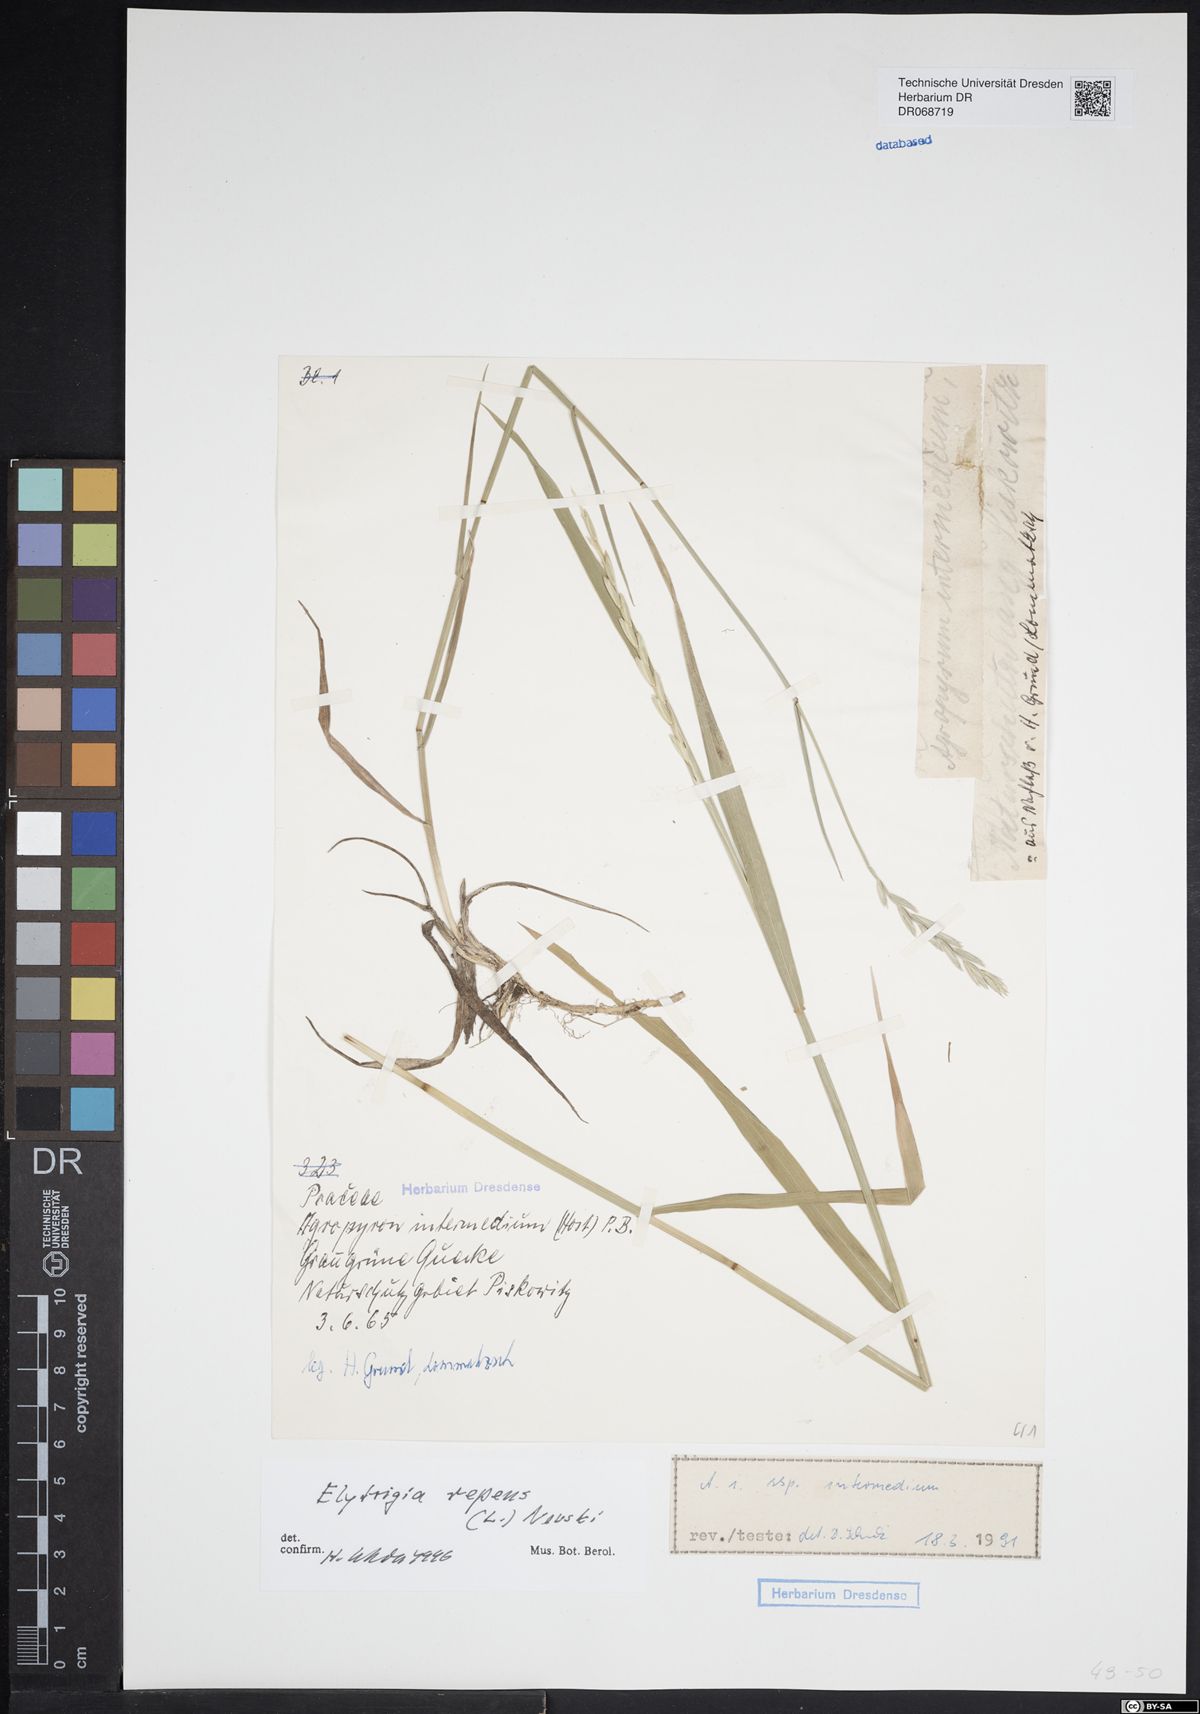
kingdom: Plantae
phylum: Tracheophyta
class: Liliopsida
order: Poales
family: Poaceae
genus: Elymus
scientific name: Elymus repens
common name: Quackgrass
